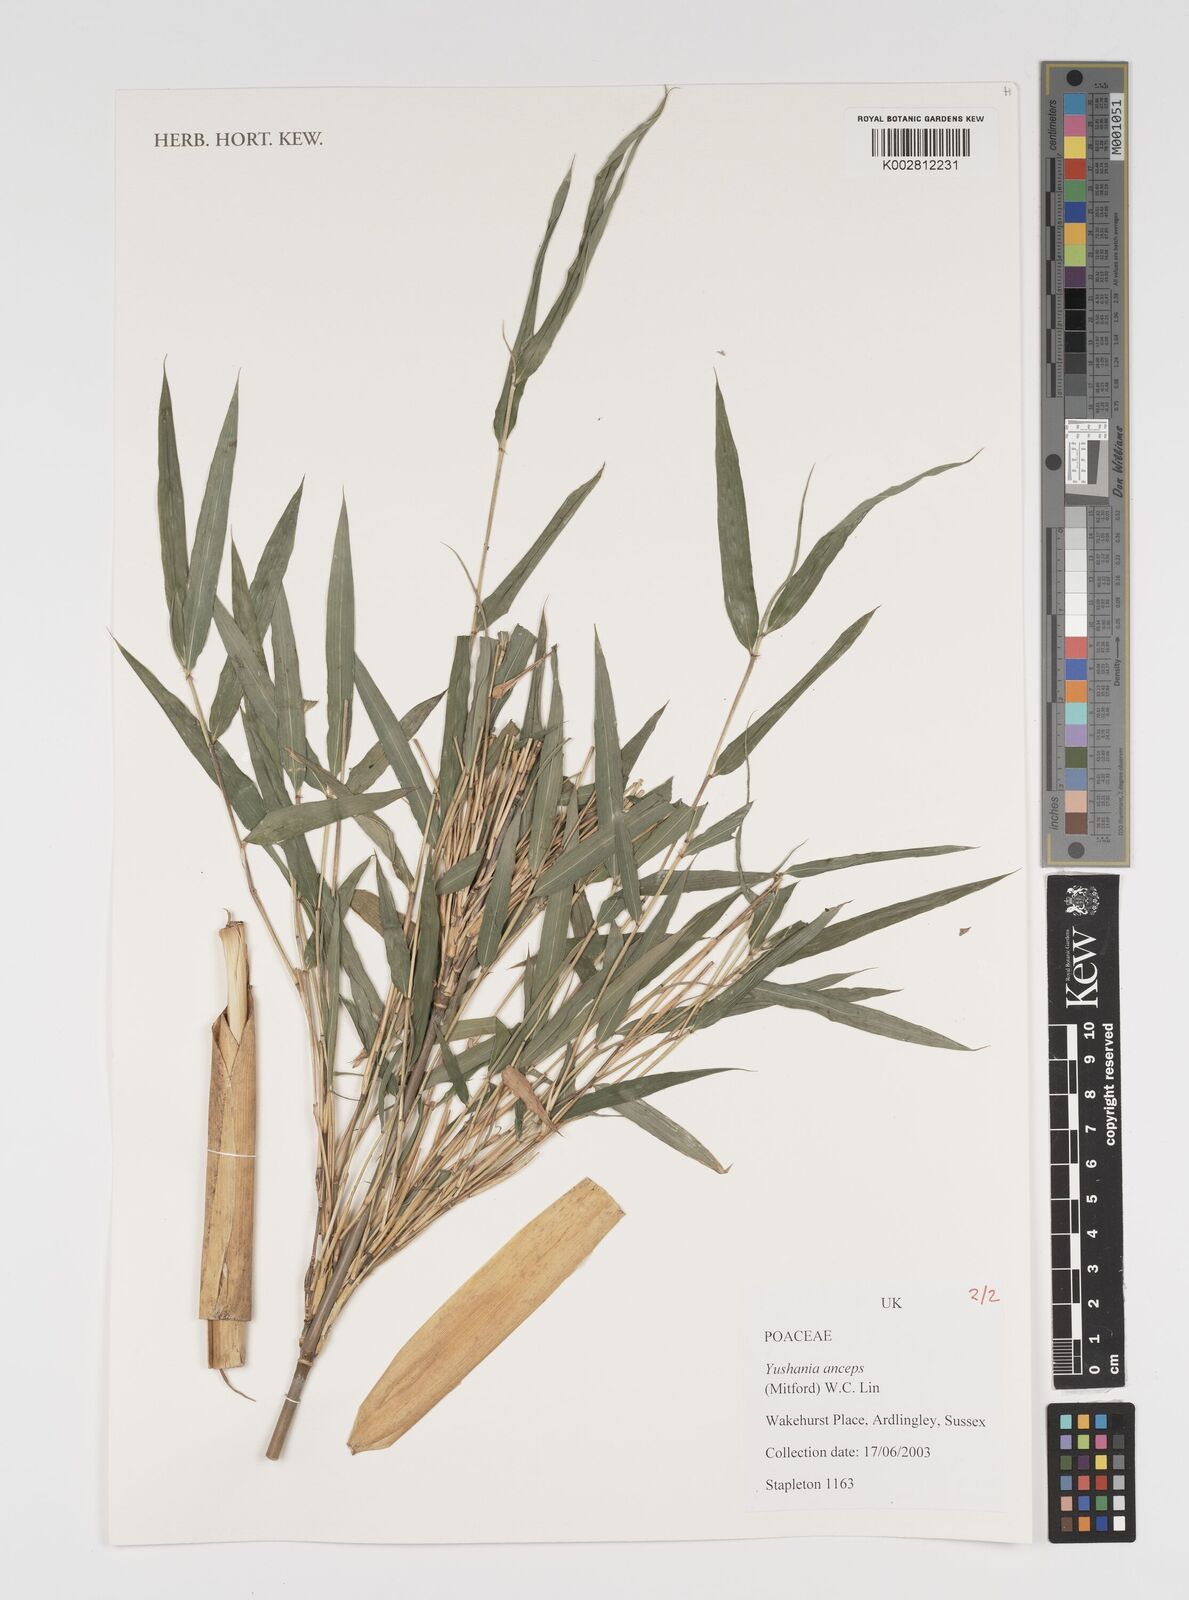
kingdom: Plantae
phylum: Tracheophyta
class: Liliopsida
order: Poales
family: Poaceae
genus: Yushania
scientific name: Yushania anceps
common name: Indian fountain-bamboo
